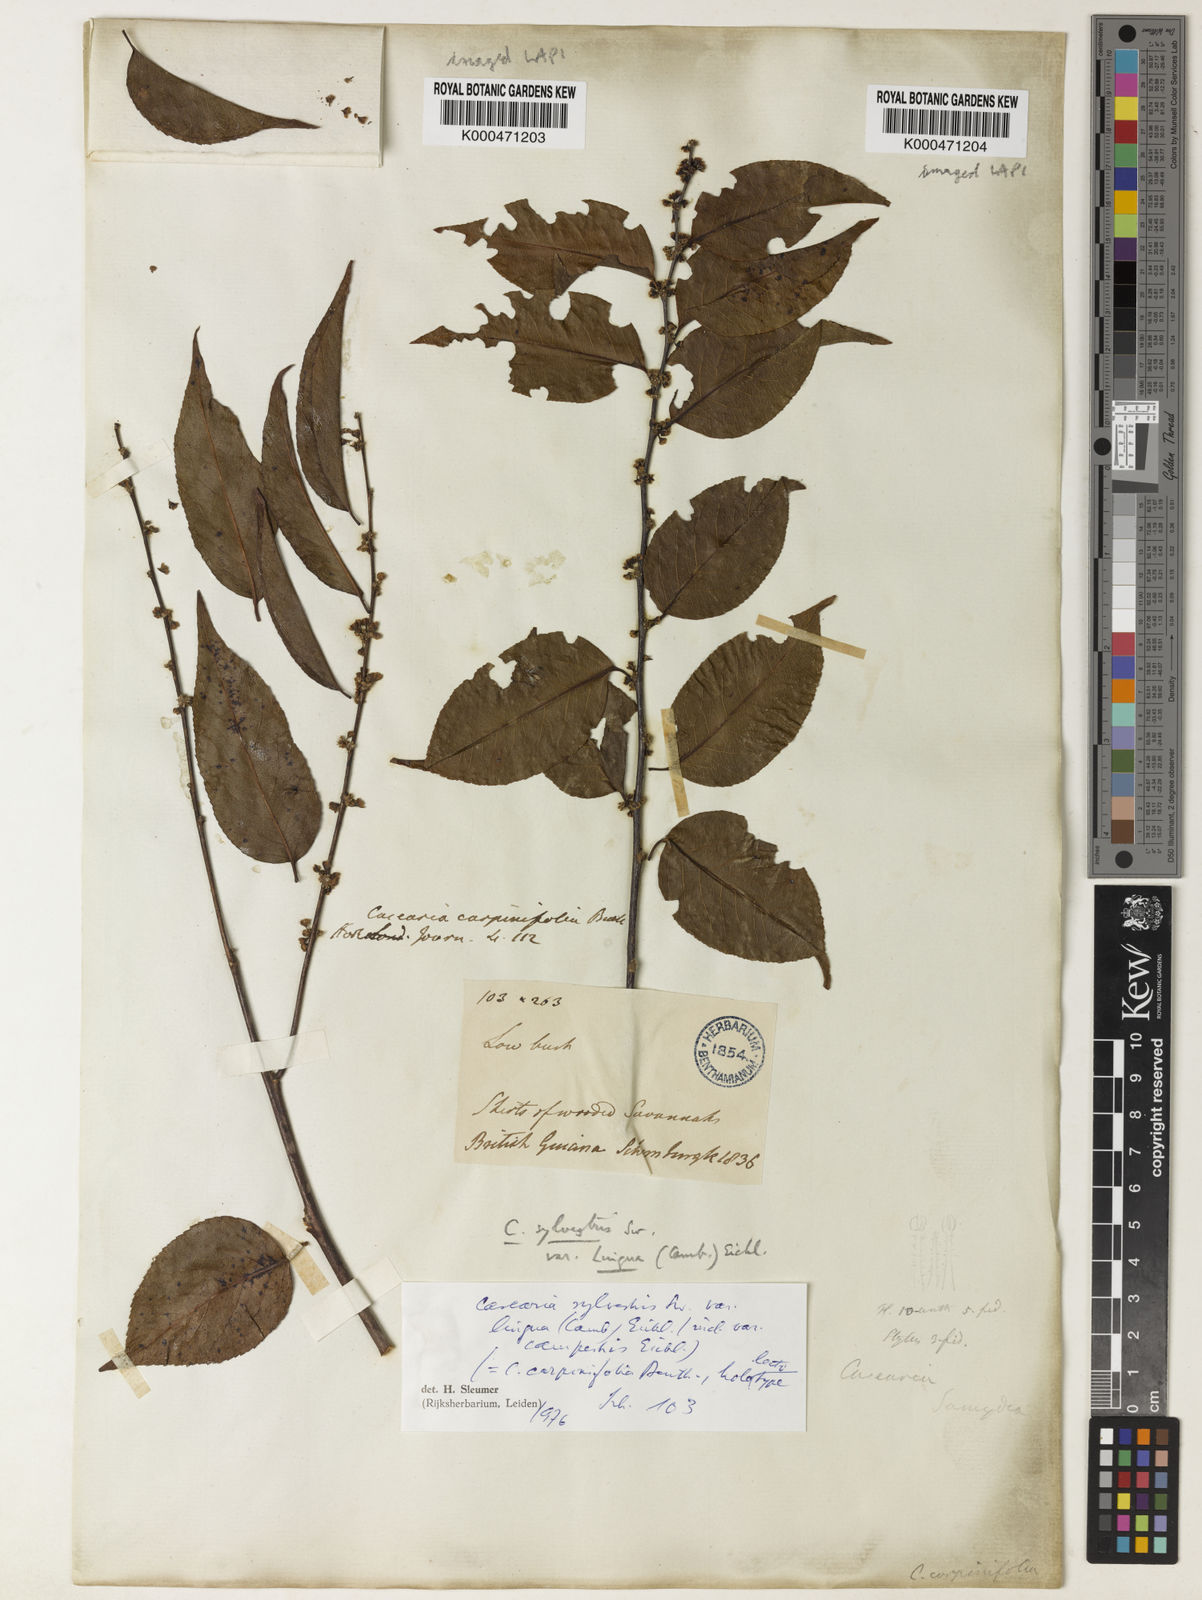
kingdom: Plantae
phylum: Tracheophyta
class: Magnoliopsida
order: Malpighiales
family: Salicaceae
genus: Casearia
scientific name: Casearia sylvestris
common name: Wild sage
